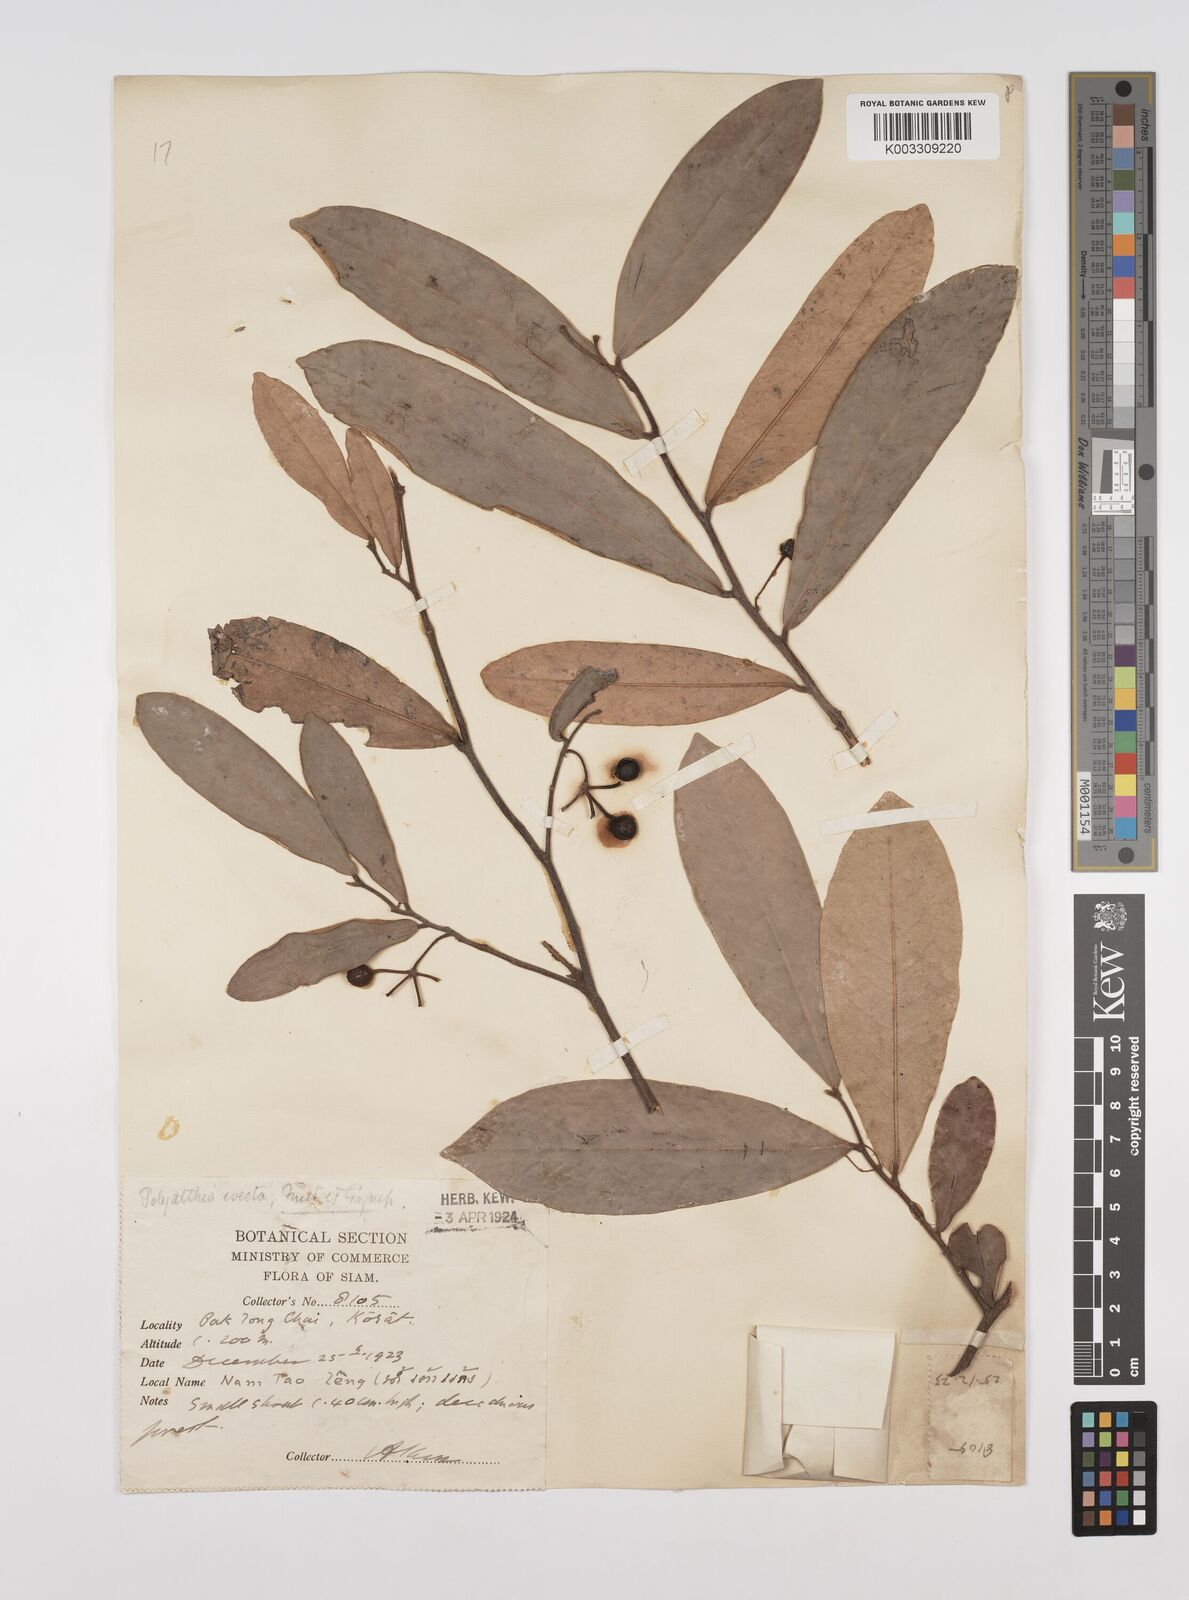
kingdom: Plantae
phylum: Tracheophyta
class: Magnoliopsida
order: Magnoliales
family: Annonaceae
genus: Polyalthia
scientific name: Polyalthia evecta
